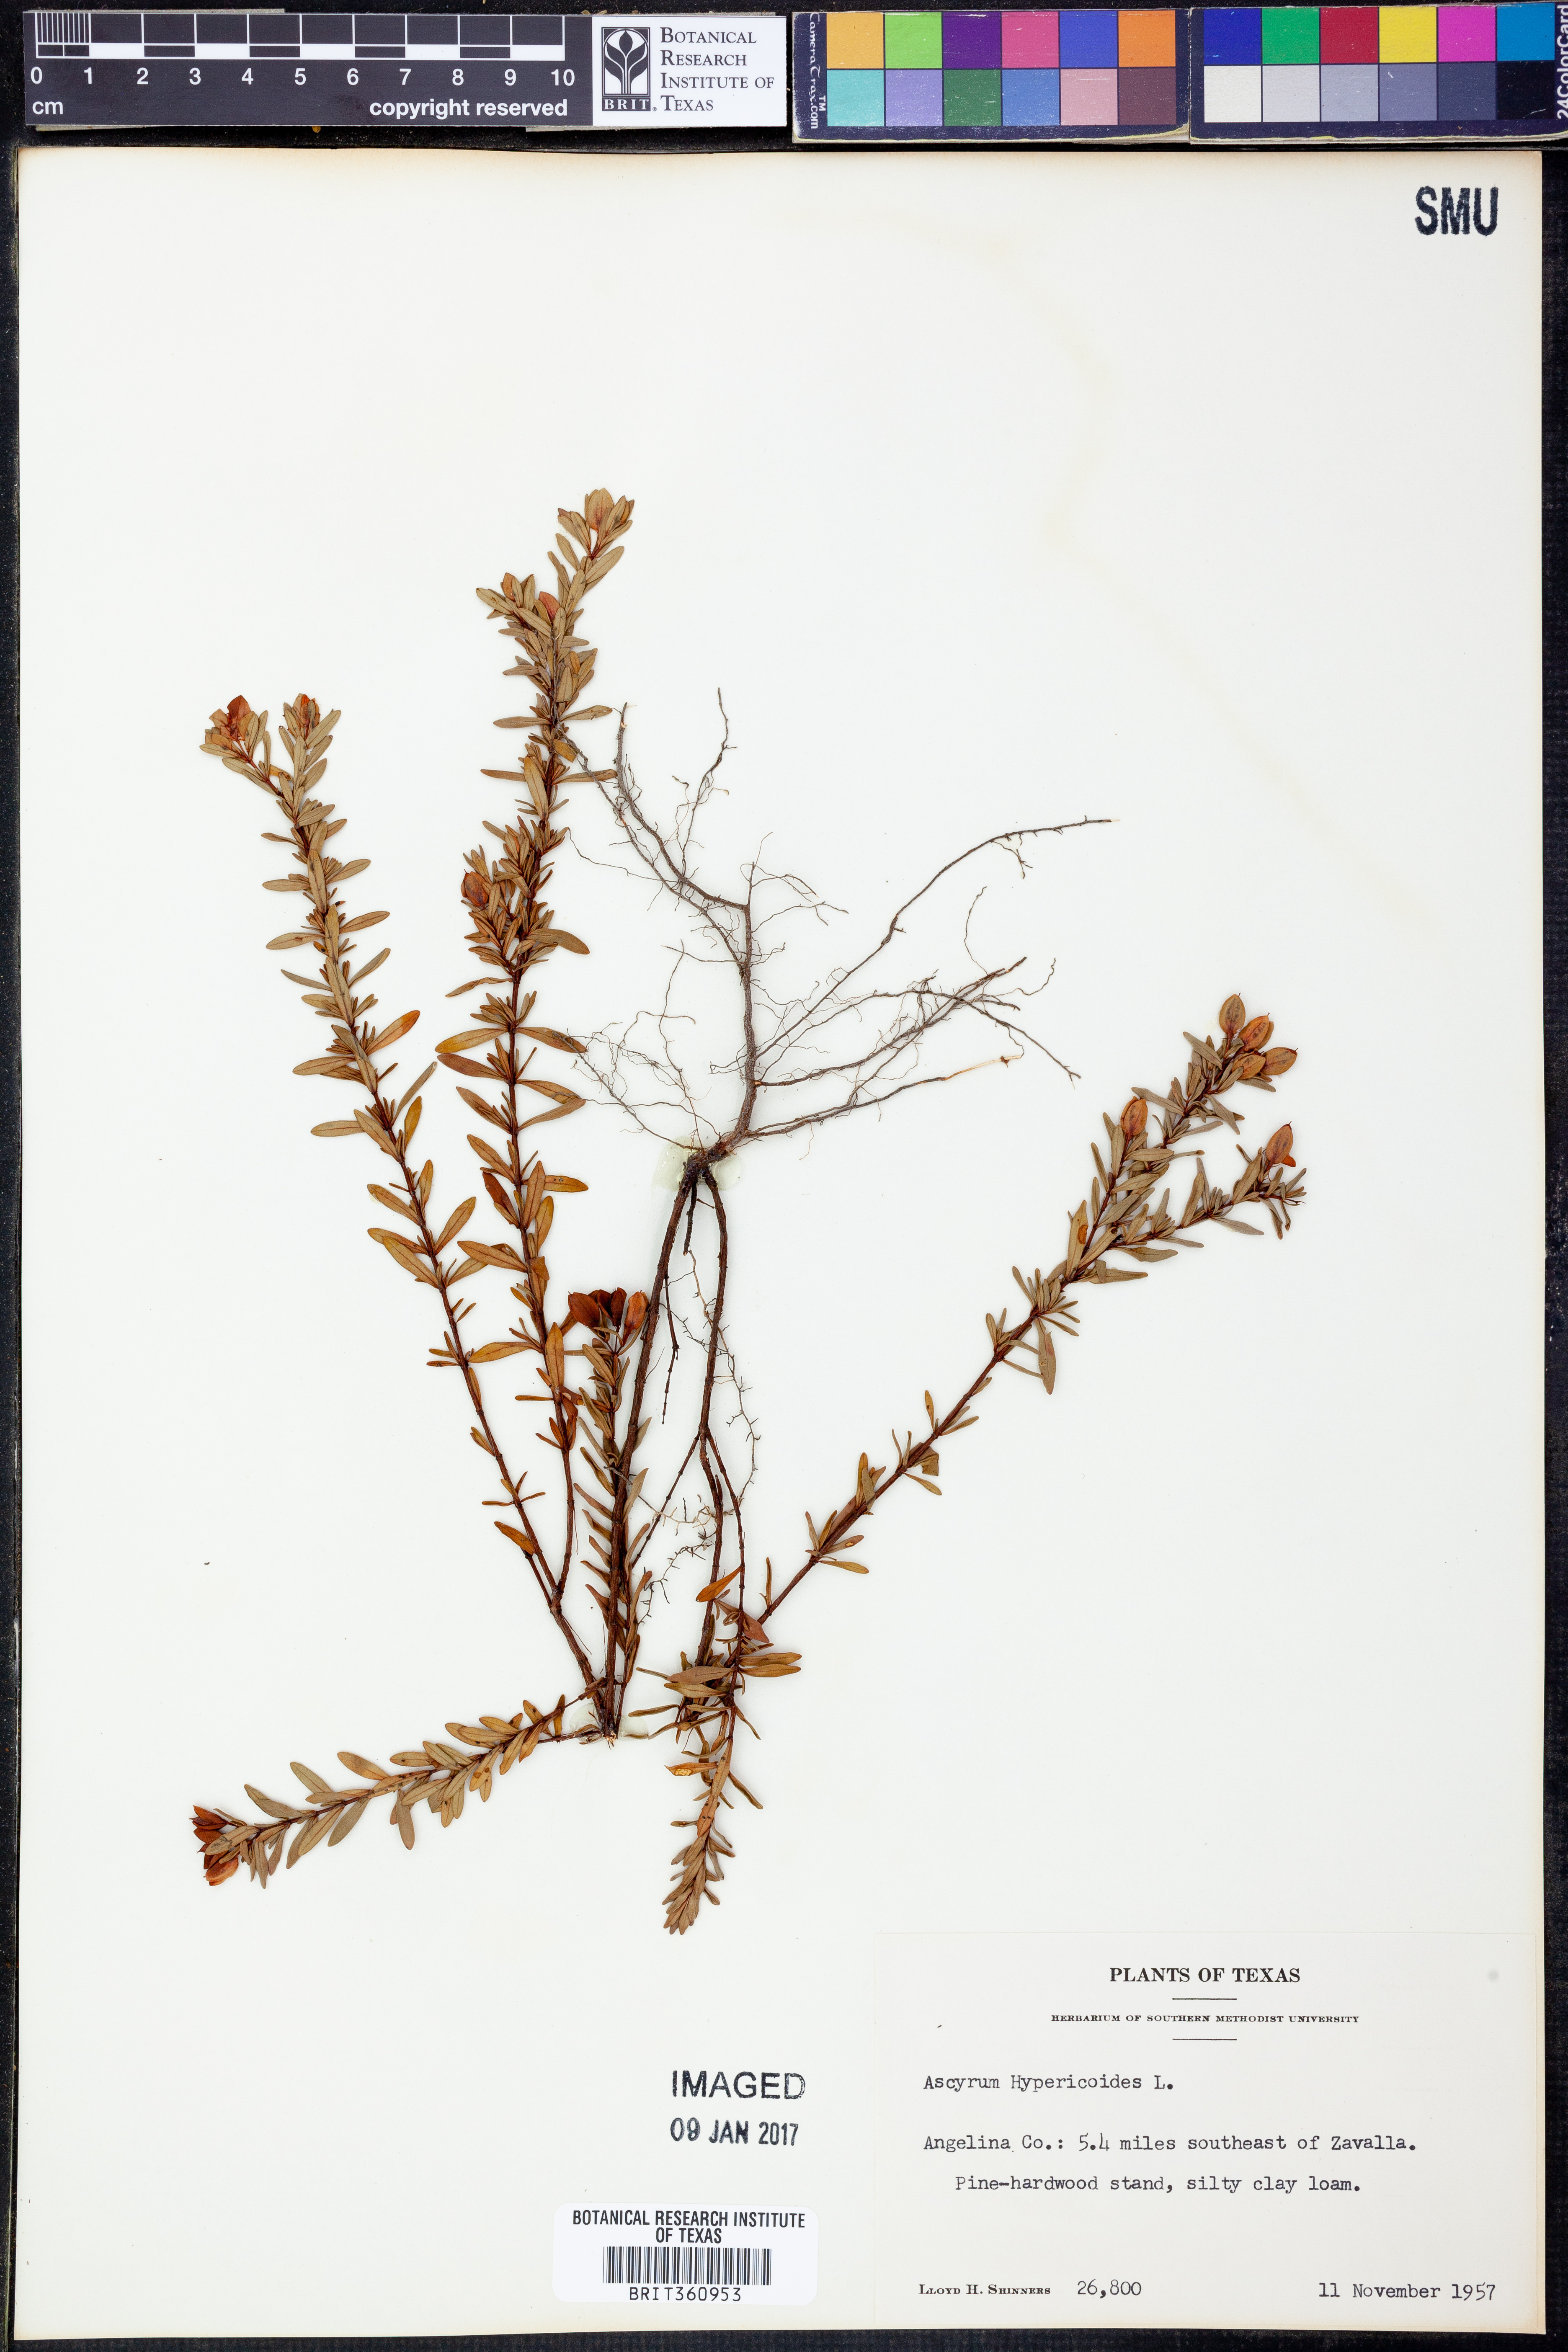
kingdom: Plantae
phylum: Tracheophyta
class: Magnoliopsida
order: Malpighiales
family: Hypericaceae
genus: Hypericum
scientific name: Hypericum hypericoides
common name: St. andrew's cross
